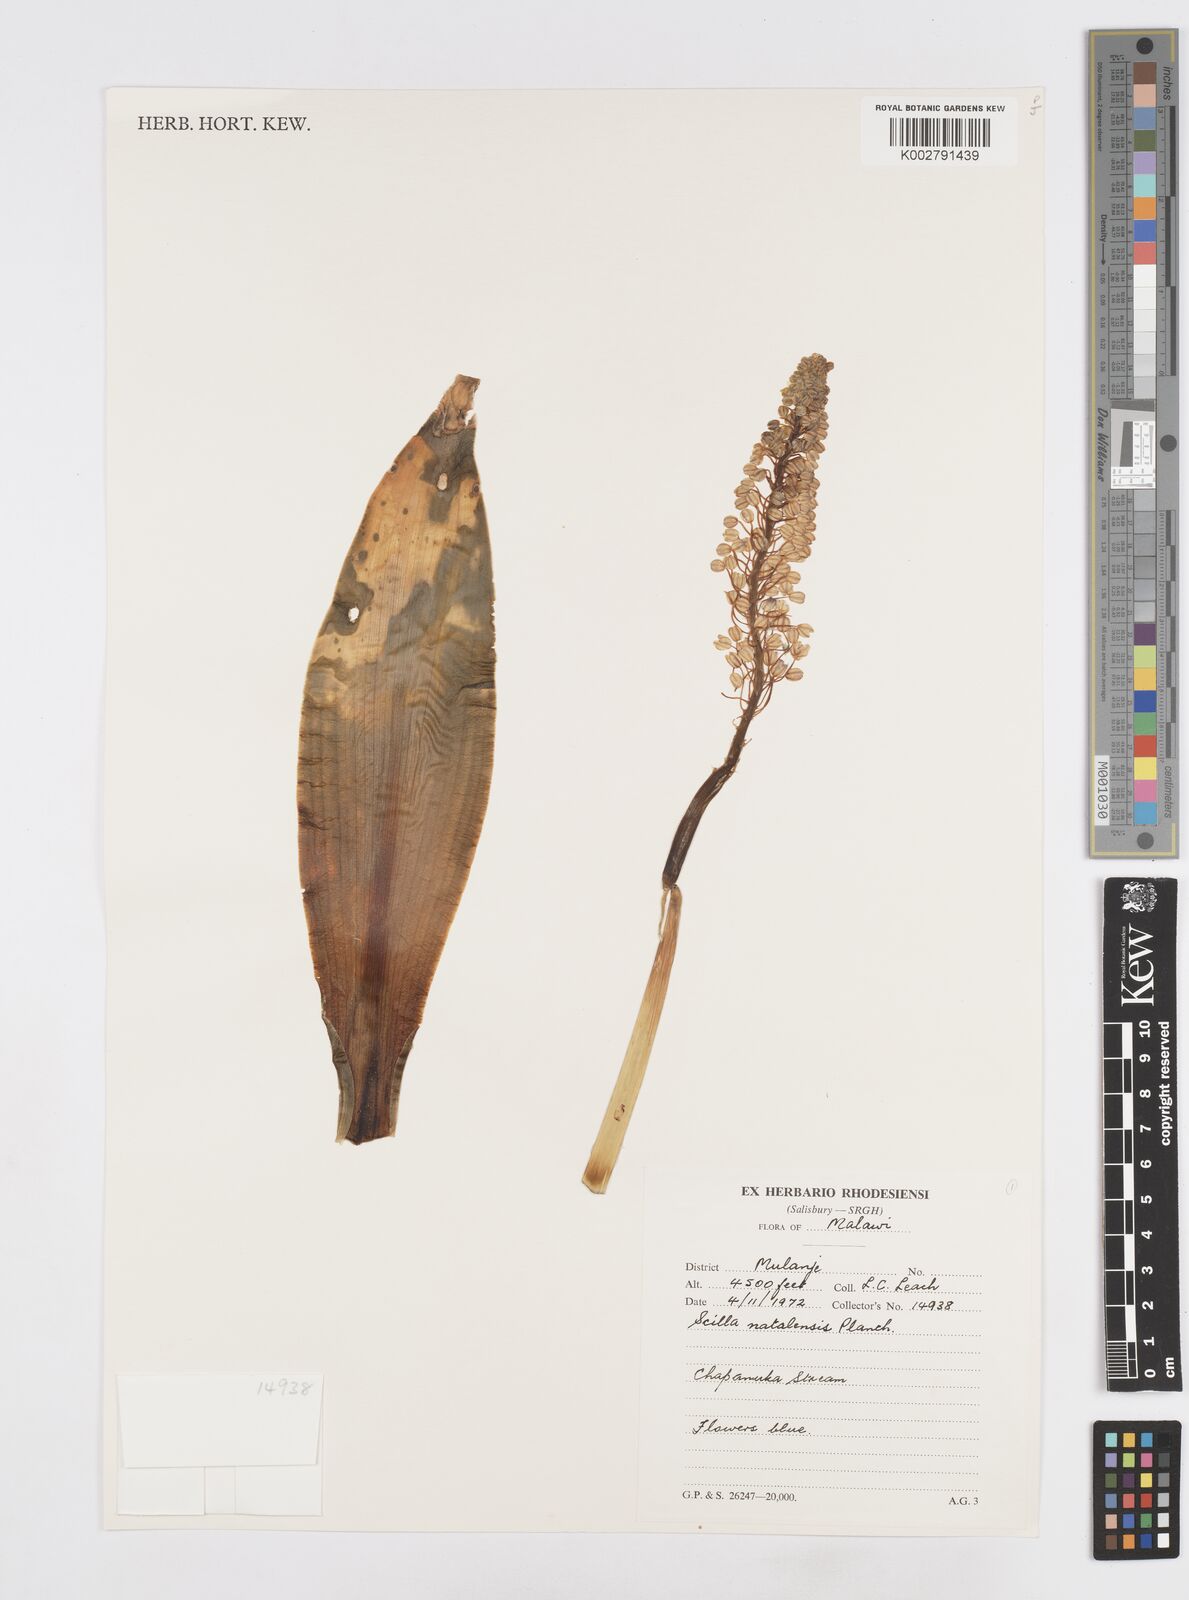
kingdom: Plantae
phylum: Tracheophyta
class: Liliopsida
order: Asparagales
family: Asparagaceae
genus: Merwilla
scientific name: Merwilla plumbea
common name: Blue-squill
